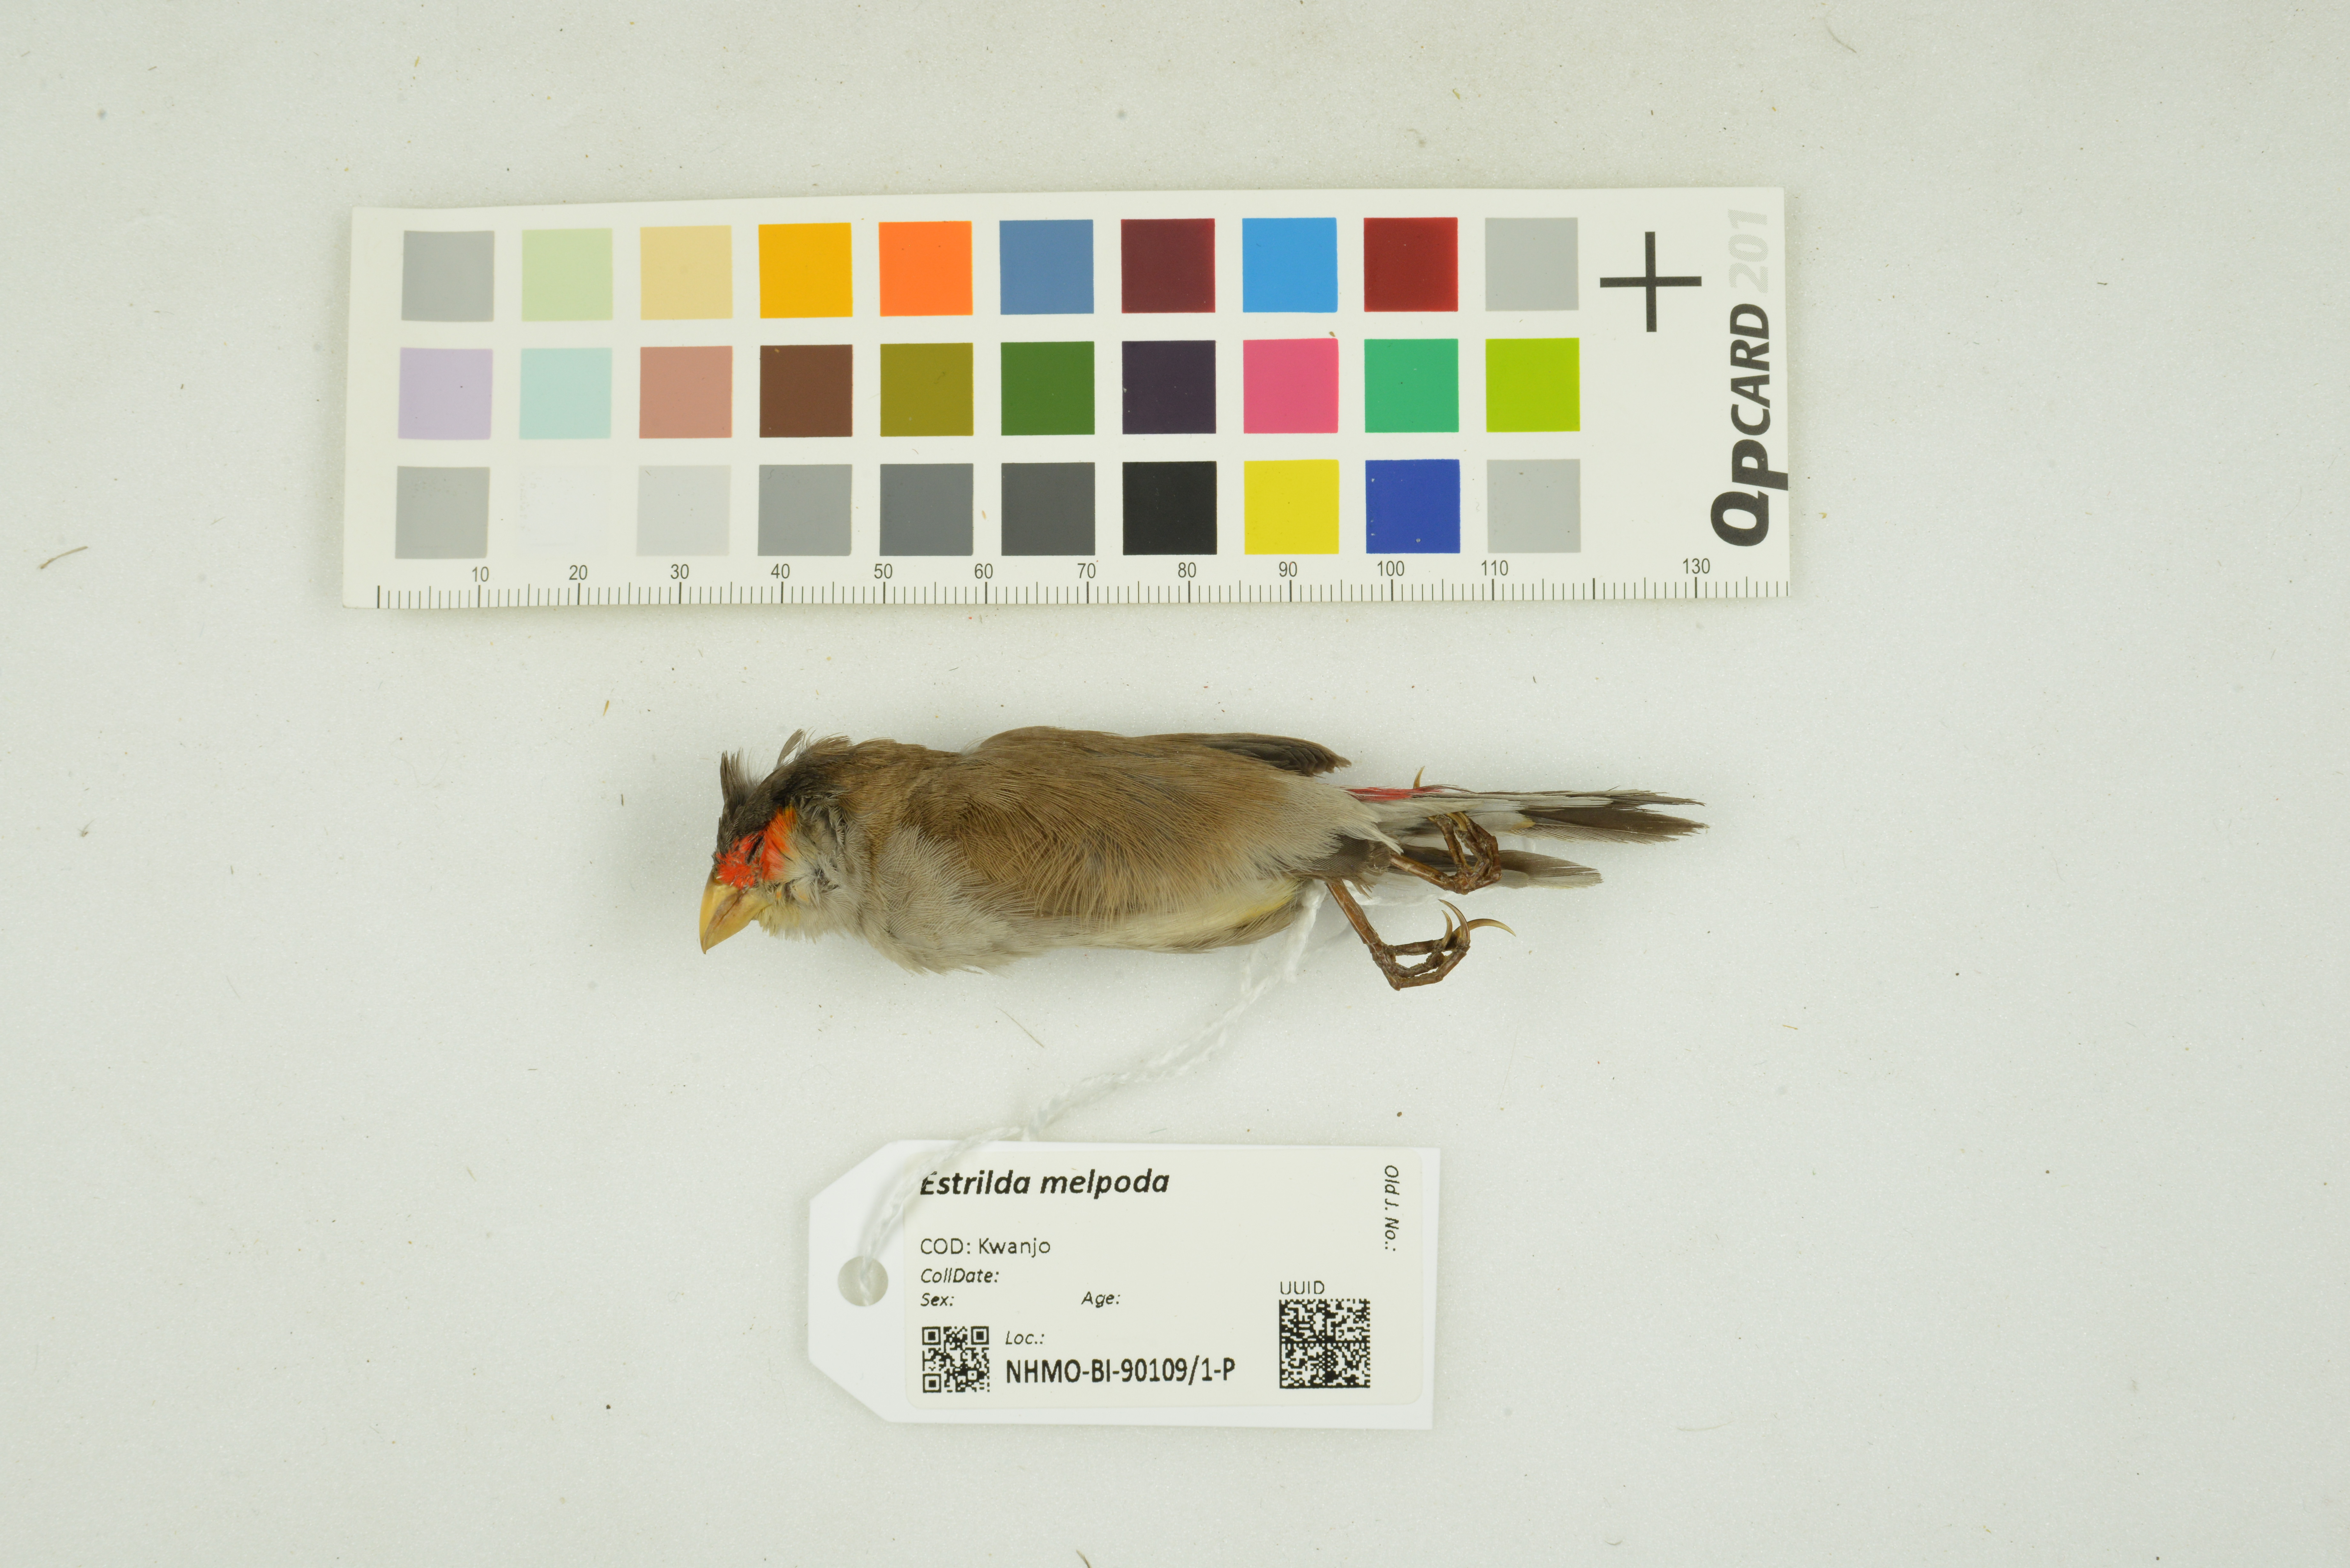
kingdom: Animalia
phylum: Chordata
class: Aves
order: Passeriformes
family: Estrildidae
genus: Estrilda
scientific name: Estrilda melpoda
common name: Orange-cheeked waxbill
